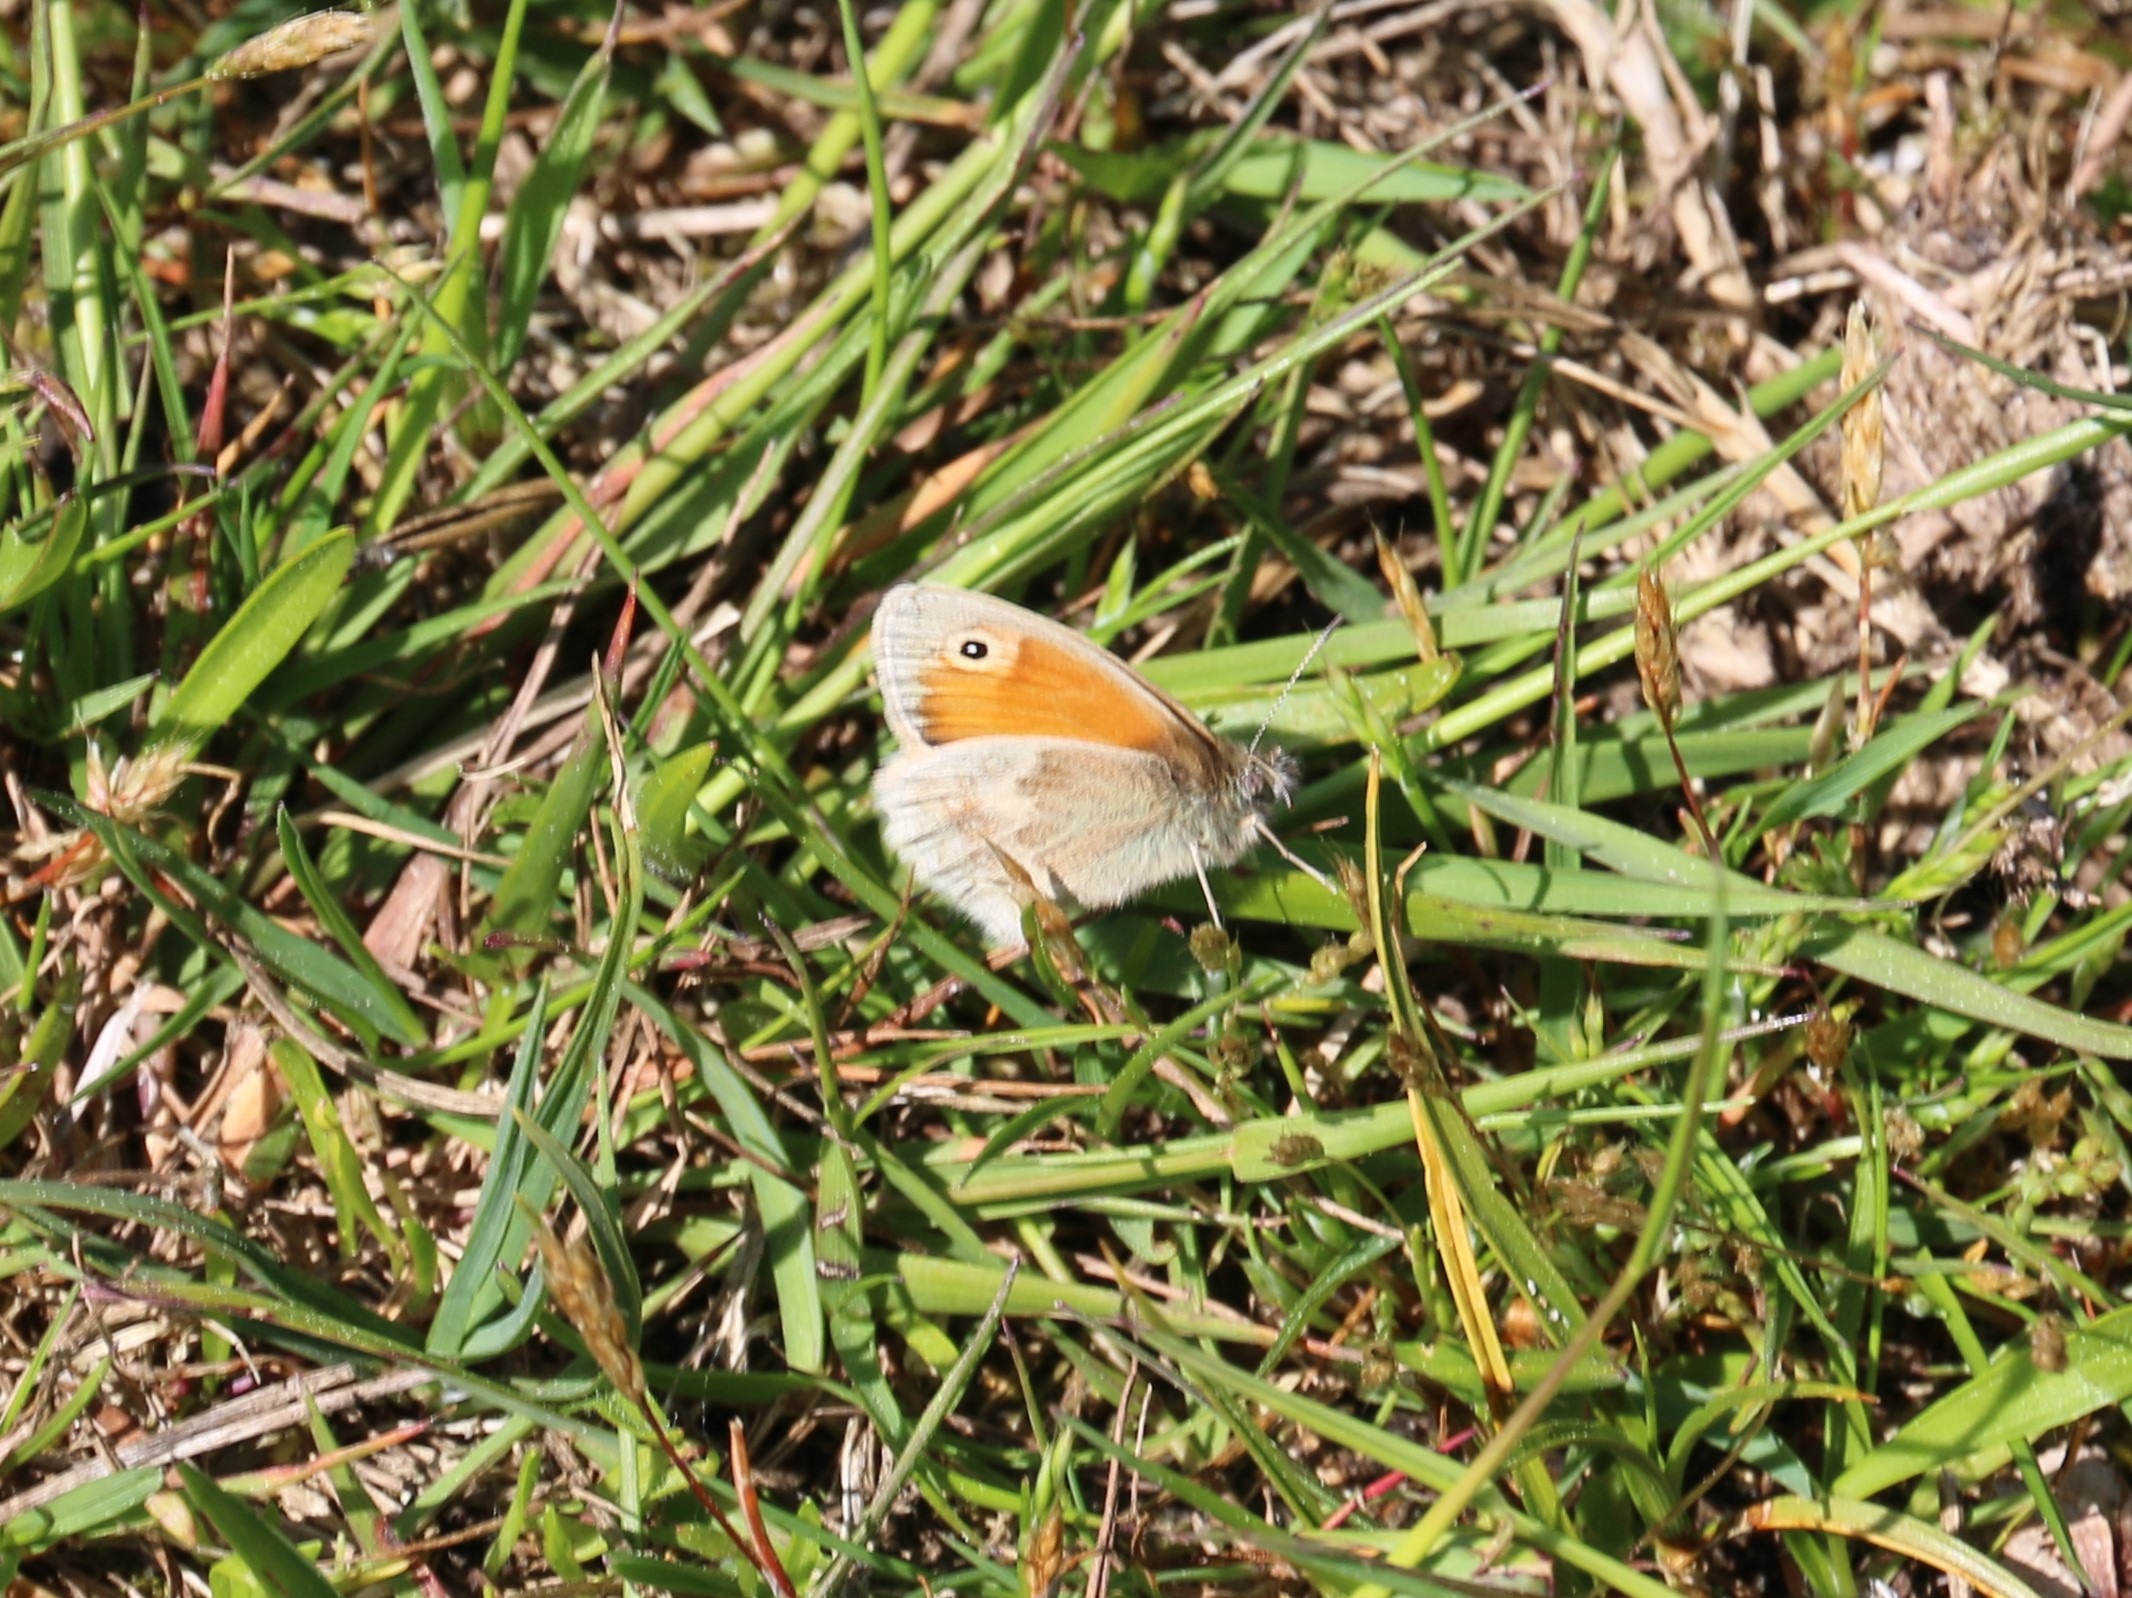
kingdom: Animalia
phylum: Arthropoda
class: Insecta
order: Lepidoptera
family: Nymphalidae
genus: Coenonympha
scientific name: Coenonympha pamphilus
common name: Okkergul randøje
